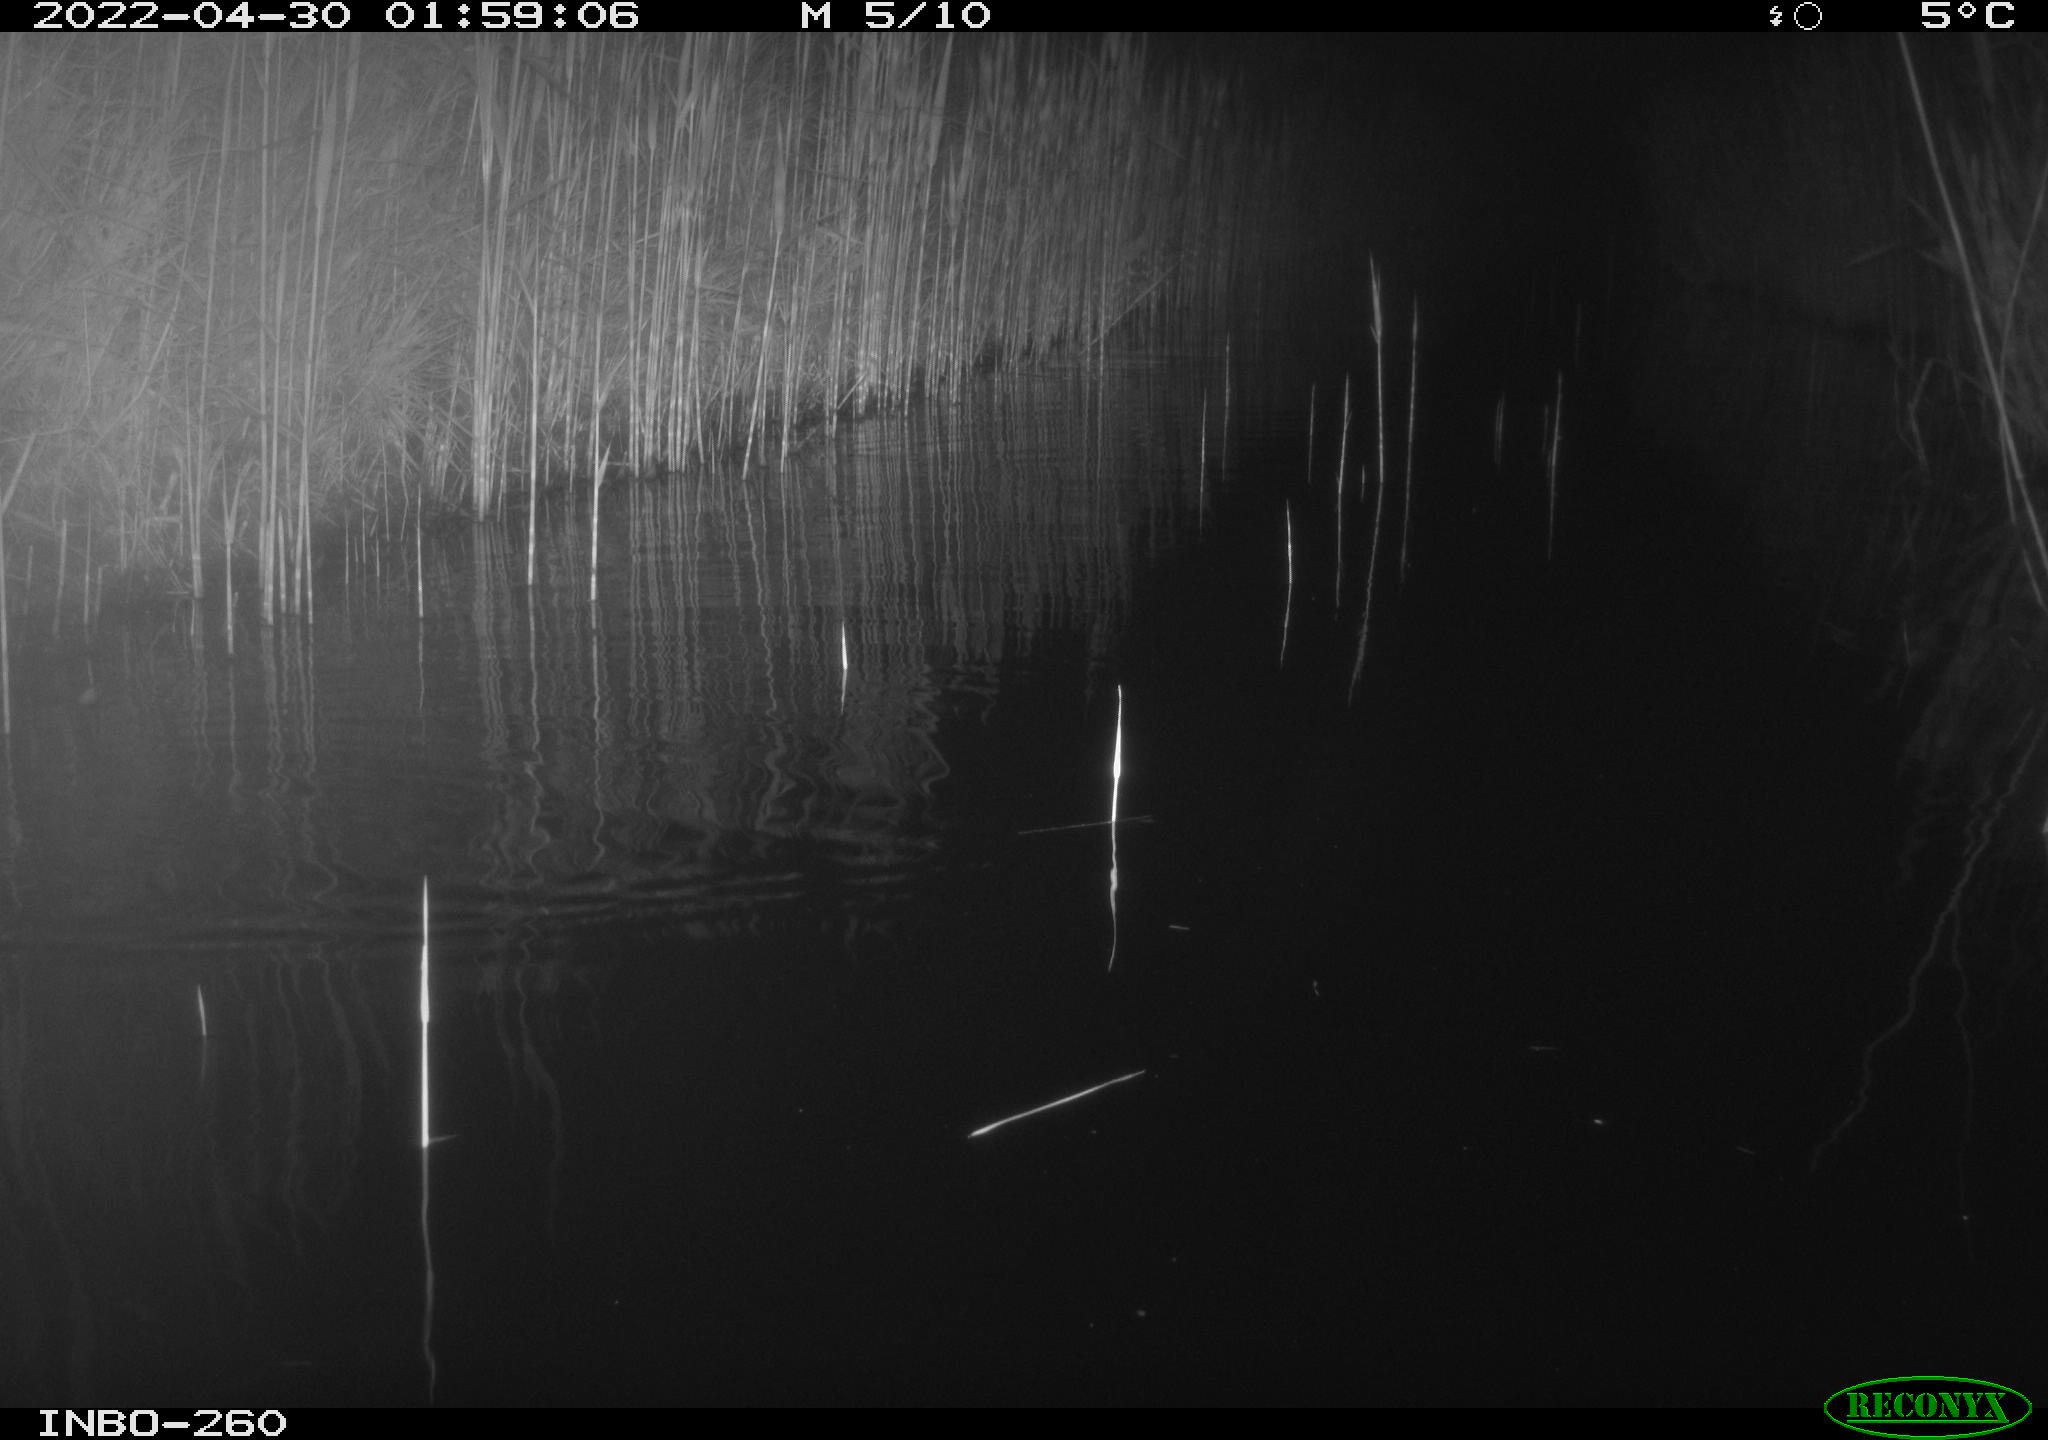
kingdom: Animalia
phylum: Chordata
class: Mammalia
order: Rodentia
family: Muridae
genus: Rattus
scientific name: Rattus norvegicus
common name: Brown rat
